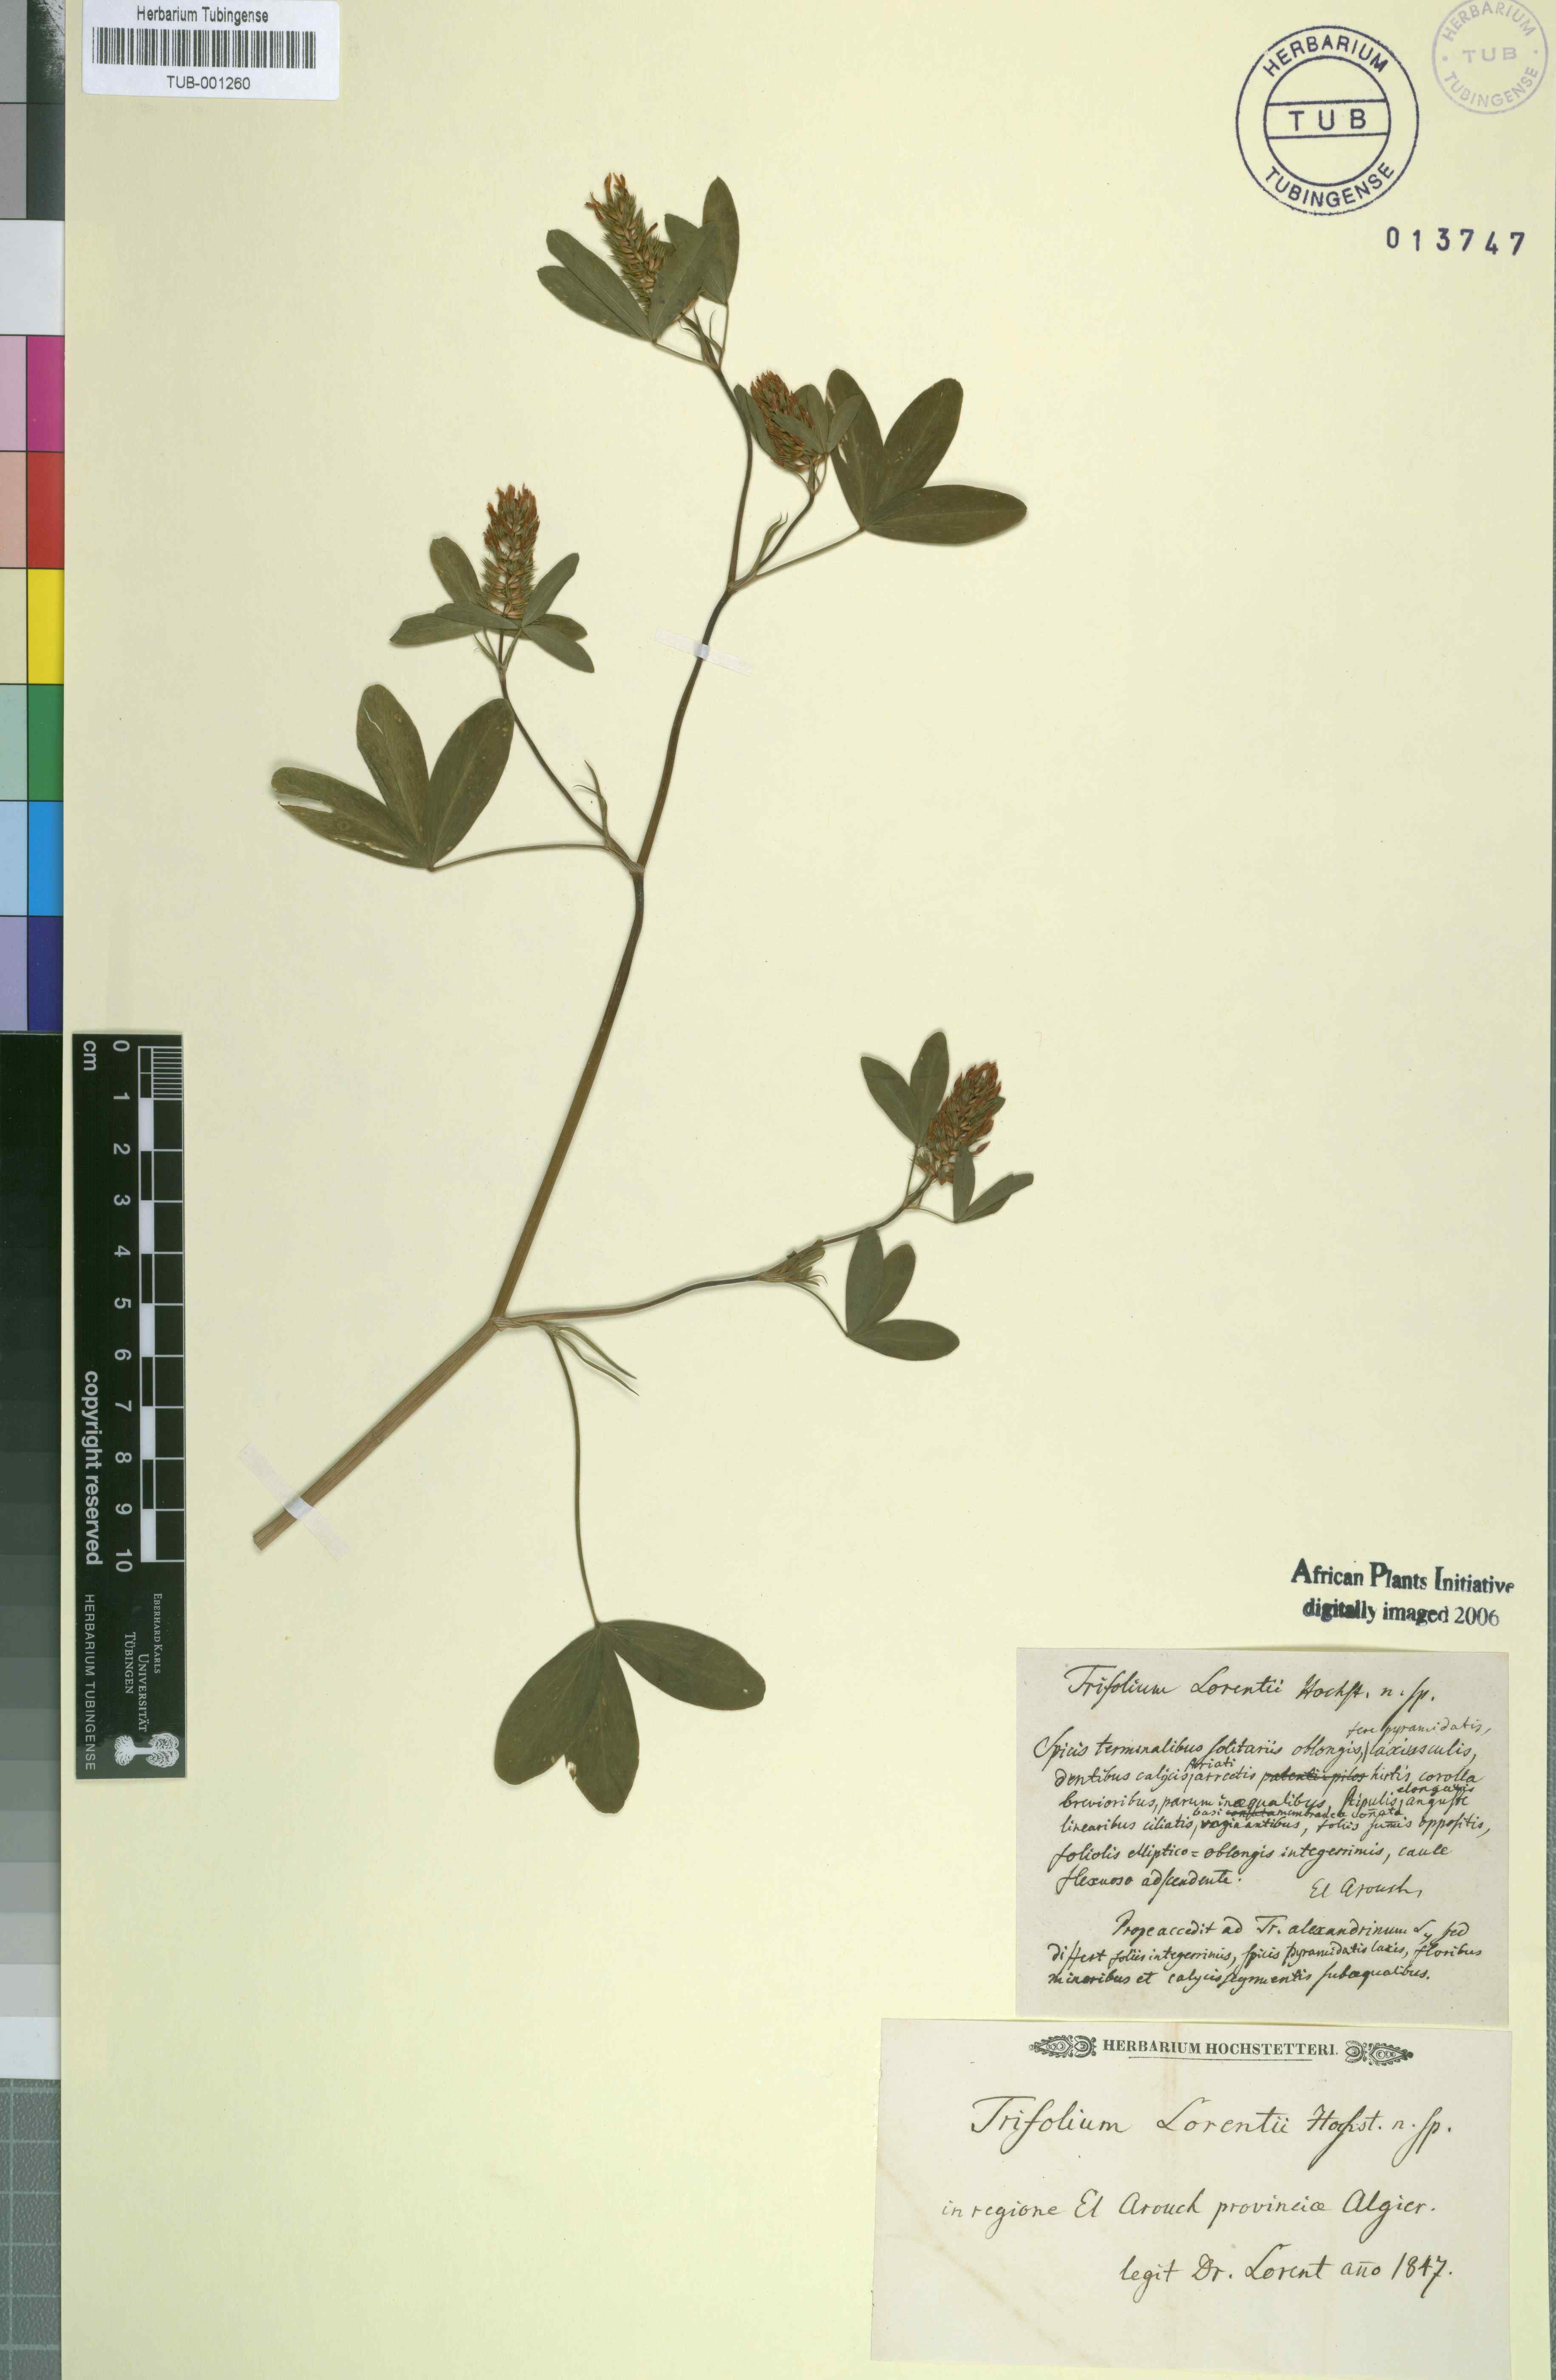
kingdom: Plantae
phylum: Tracheophyta
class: Magnoliopsida
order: Fabales
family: Fabaceae
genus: Trifolium
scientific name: Trifolium
